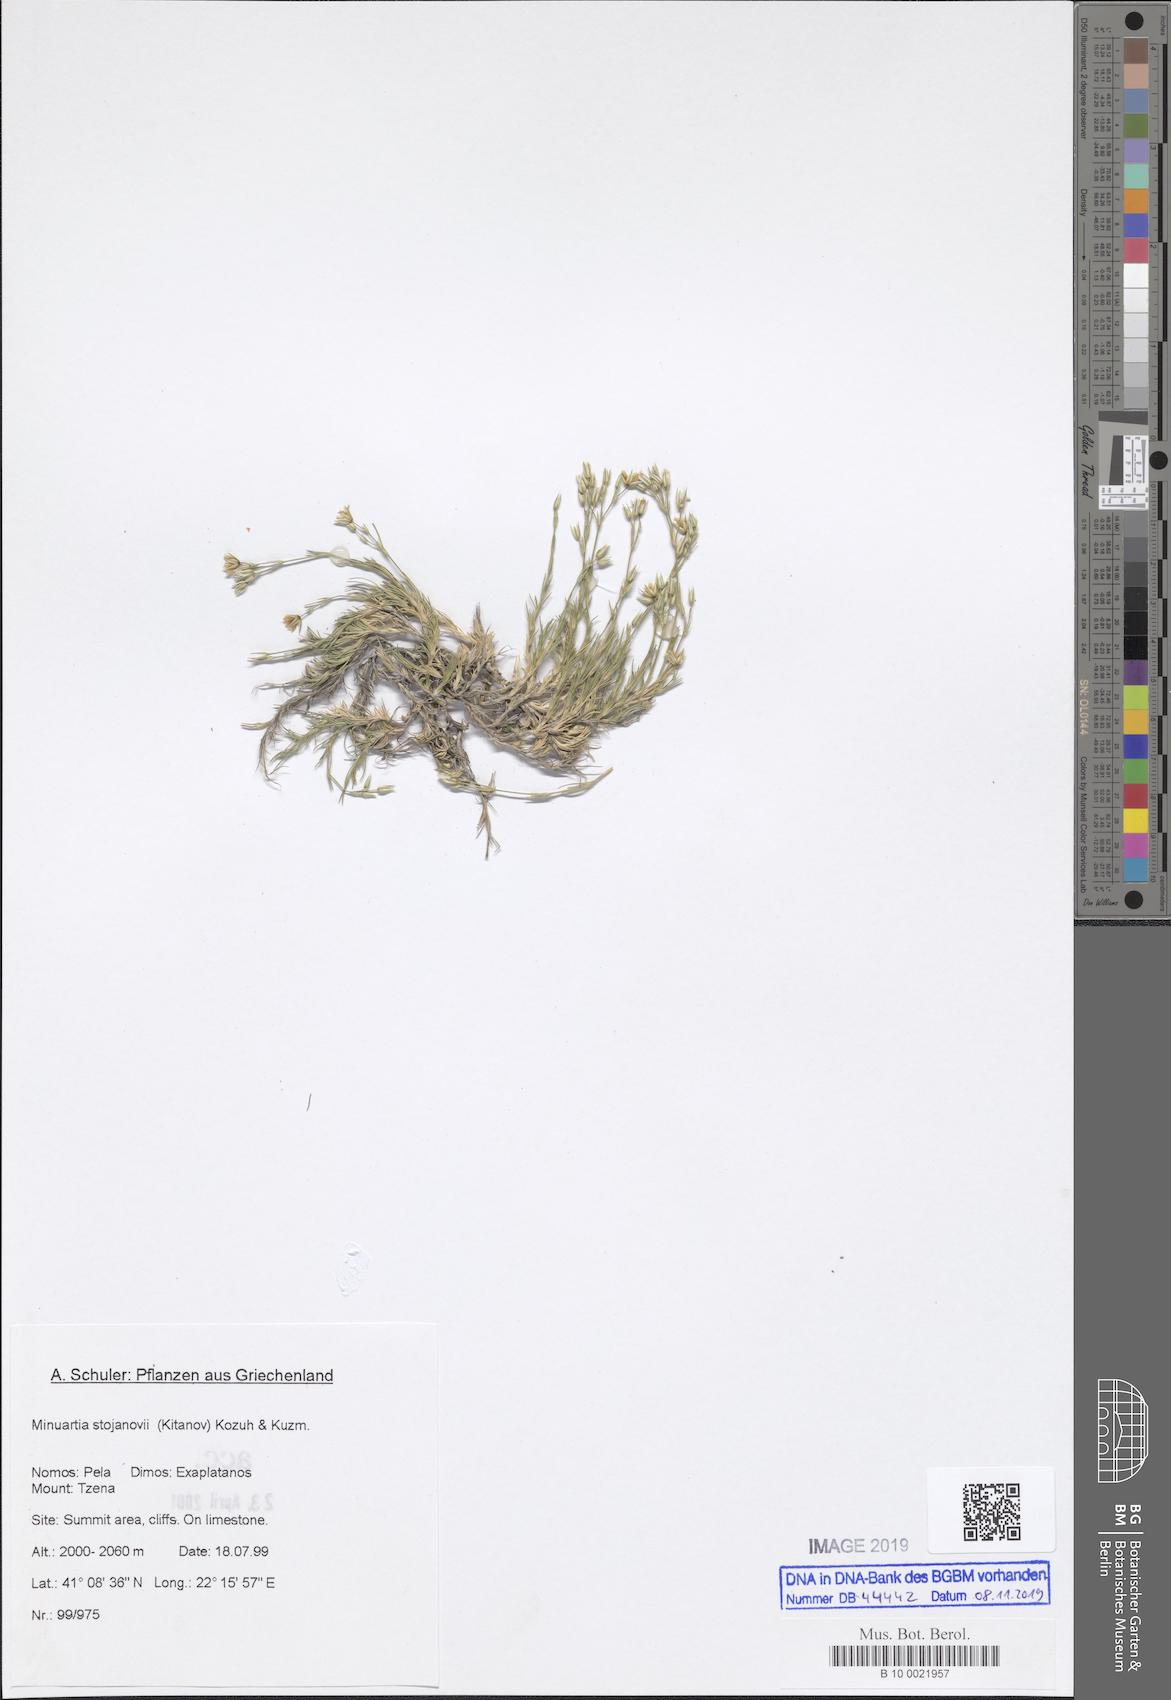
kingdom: Plantae
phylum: Tracheophyta
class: Magnoliopsida
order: Caryophyllales
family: Caryophyllaceae
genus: Minuartia
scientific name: Minuartia stojanovii
